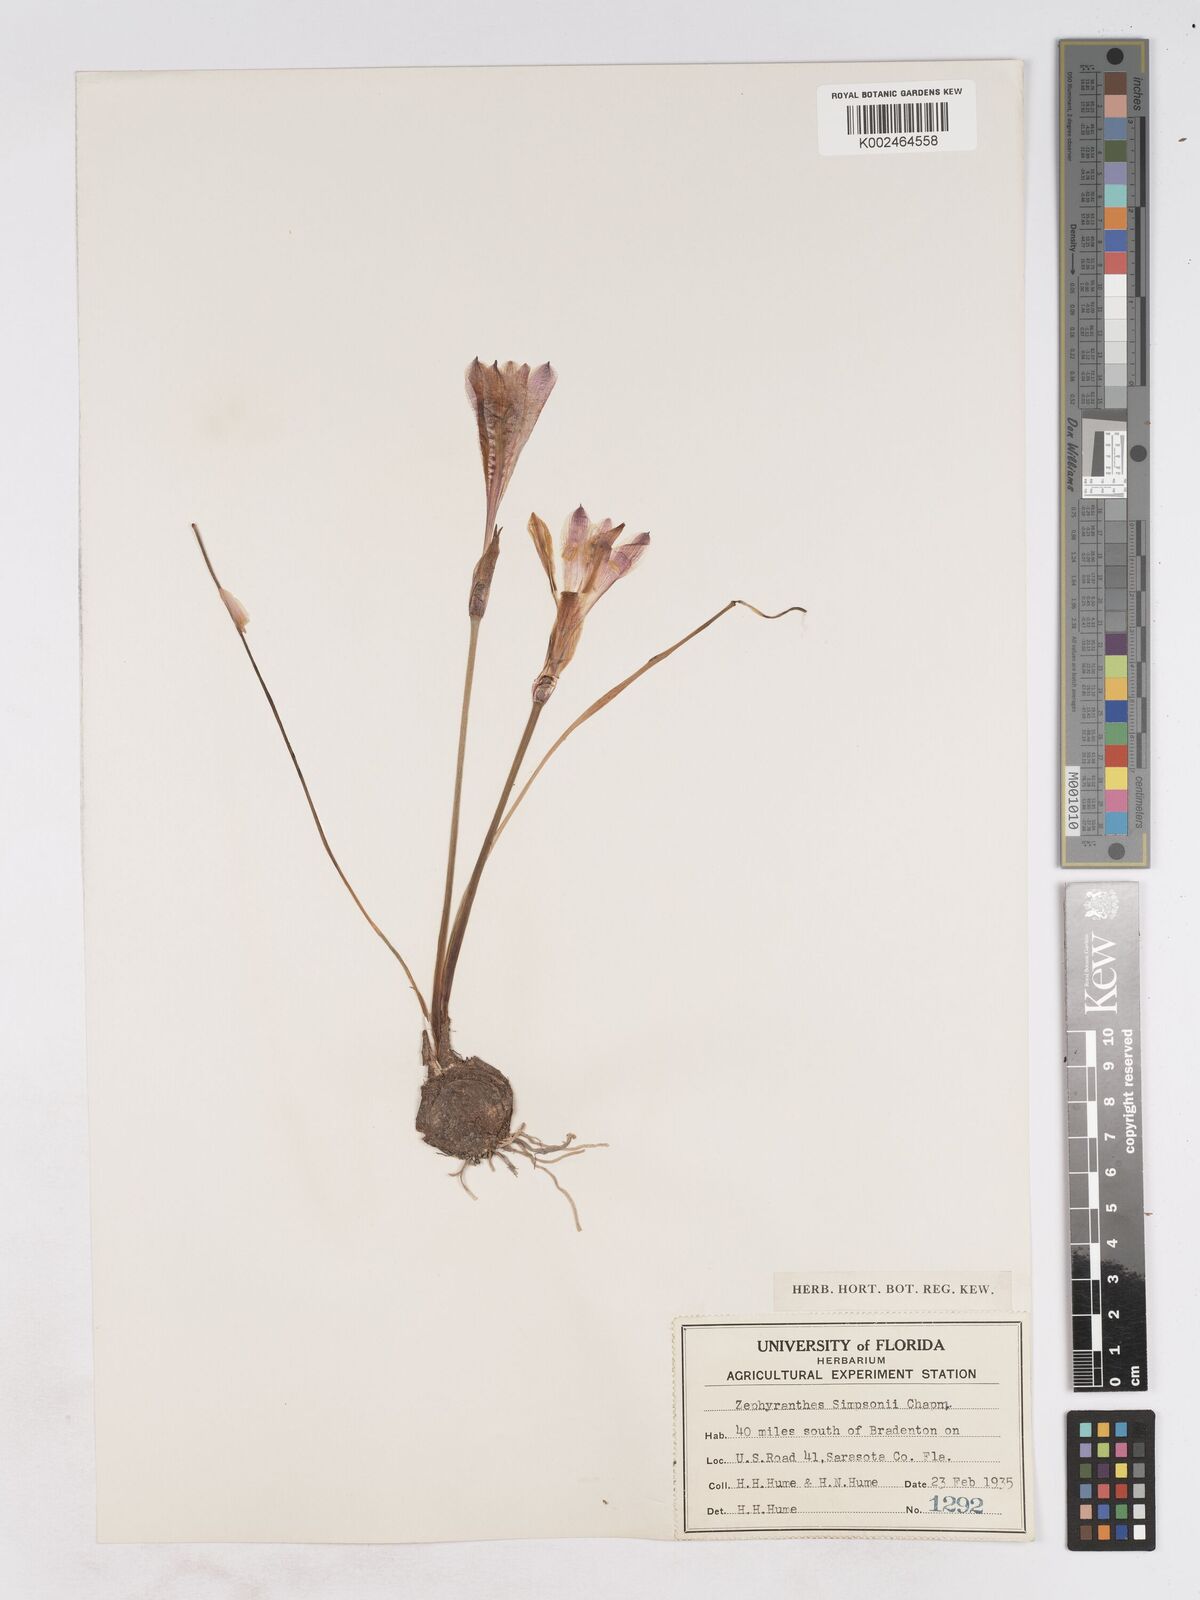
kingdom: Plantae
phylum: Tracheophyta
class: Liliopsida
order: Asparagales
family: Amaryllidaceae
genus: Zephyranthes
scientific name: Zephyranthes simpsonii
